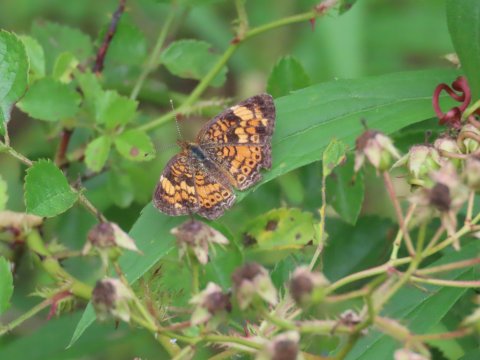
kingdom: Animalia
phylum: Arthropoda
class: Insecta
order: Lepidoptera
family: Nymphalidae
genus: Phyciodes
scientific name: Phyciodes tharos
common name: Pearl Crescent
